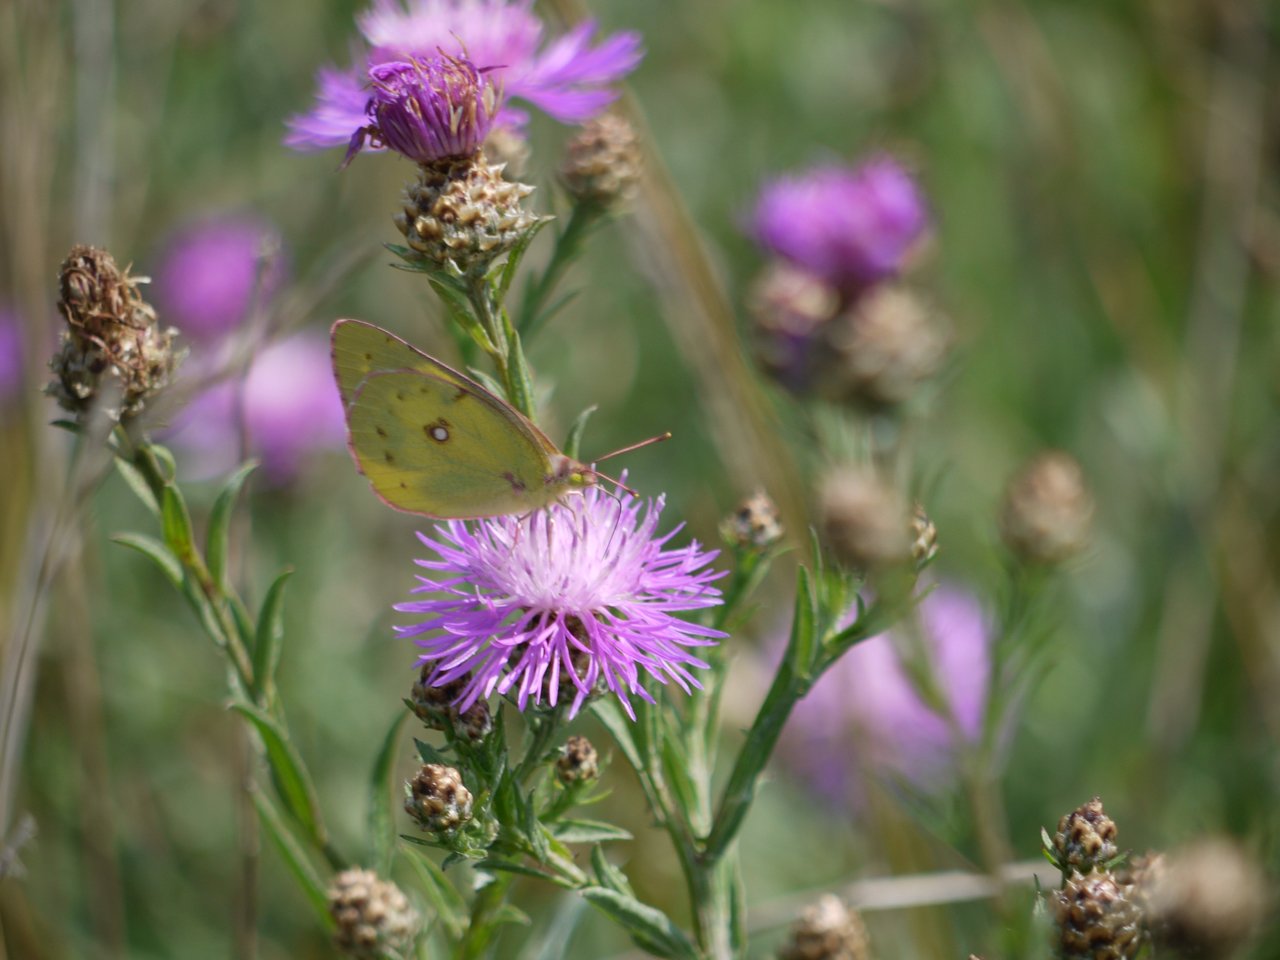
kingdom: Animalia
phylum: Arthropoda
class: Insecta
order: Lepidoptera
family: Pieridae
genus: Colias
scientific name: Colias philodice
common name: Clouded Sulphur
